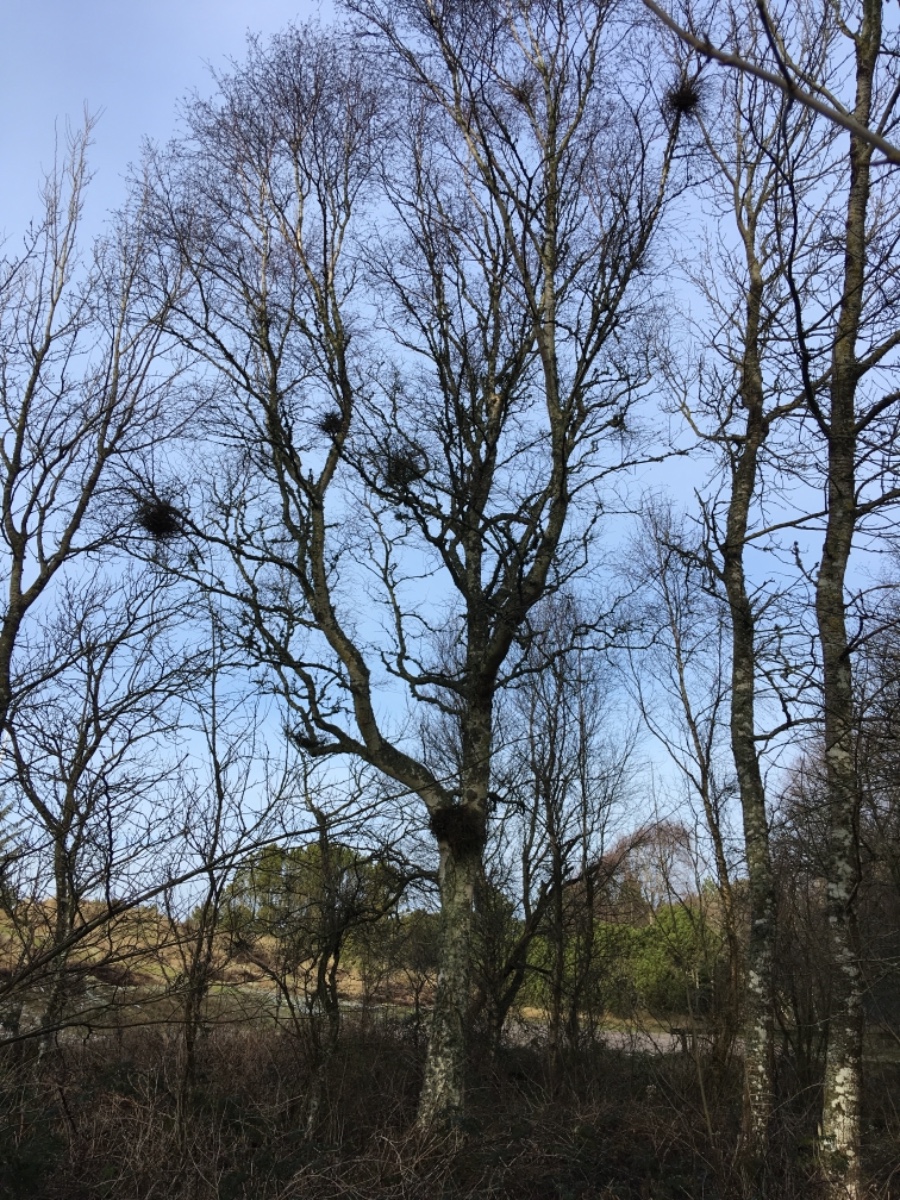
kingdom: Fungi
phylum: Ascomycota
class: Taphrinomycetes
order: Taphrinales
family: Taphrinaceae
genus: Taphrina
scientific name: Taphrina betulina
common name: hekse-sækdug
